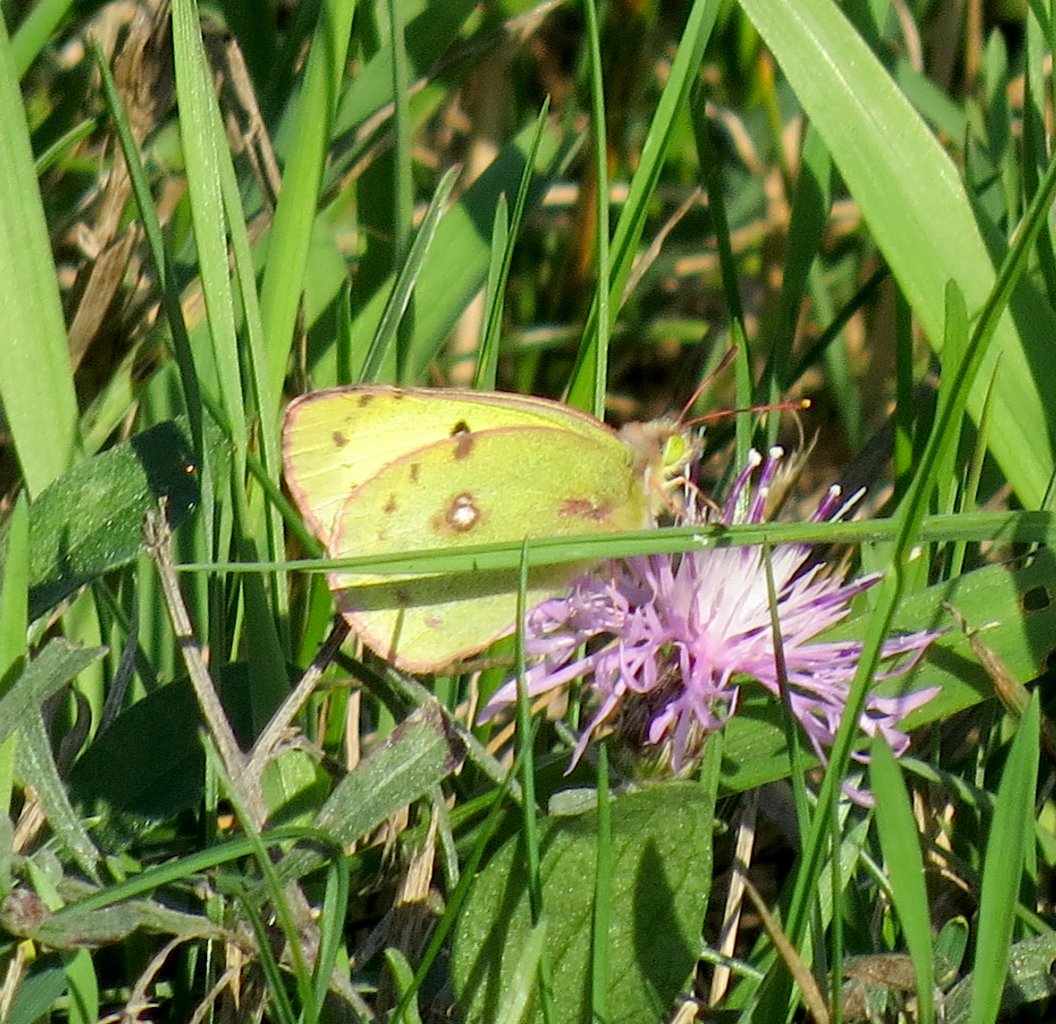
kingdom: Animalia
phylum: Arthropoda
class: Insecta
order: Lepidoptera
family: Pieridae
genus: Colias
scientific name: Colias philodice
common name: Clouded Sulphur
